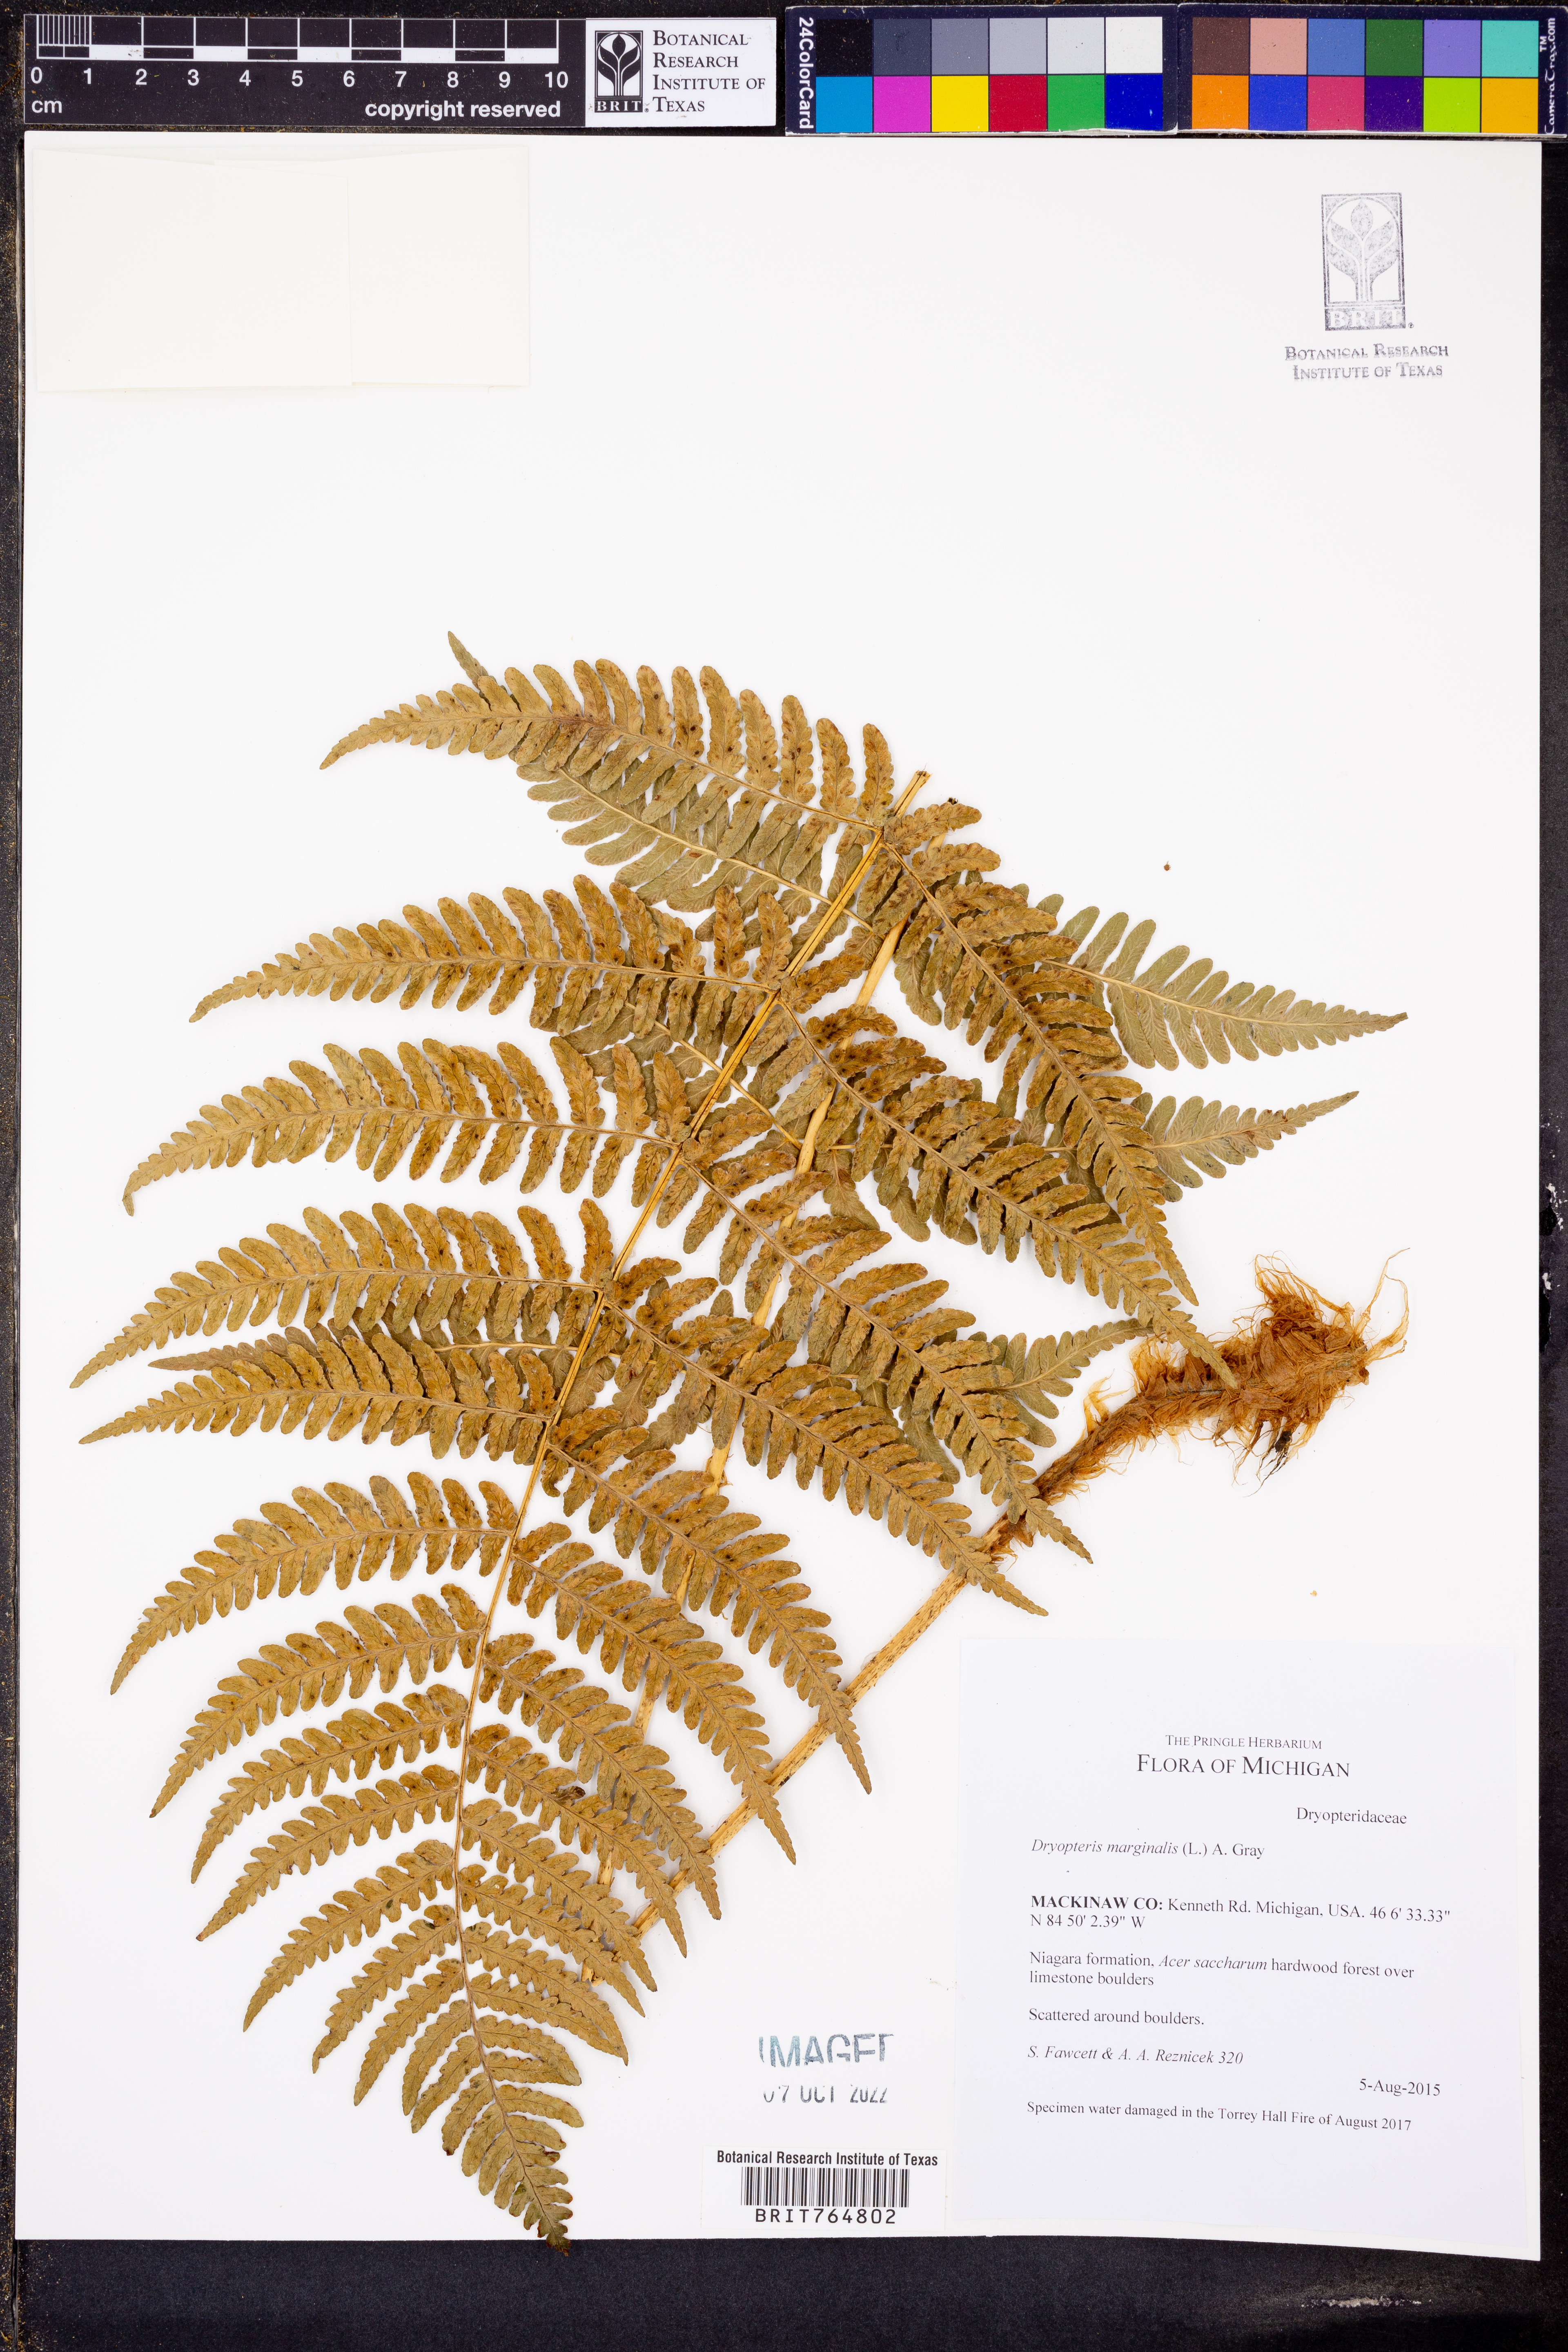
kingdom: Plantae
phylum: Tracheophyta
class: Polypodiopsida
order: Polypodiales
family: Dryopteridaceae
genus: Dryopteris
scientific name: Dryopteris marginalis
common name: Marginal wood fern
